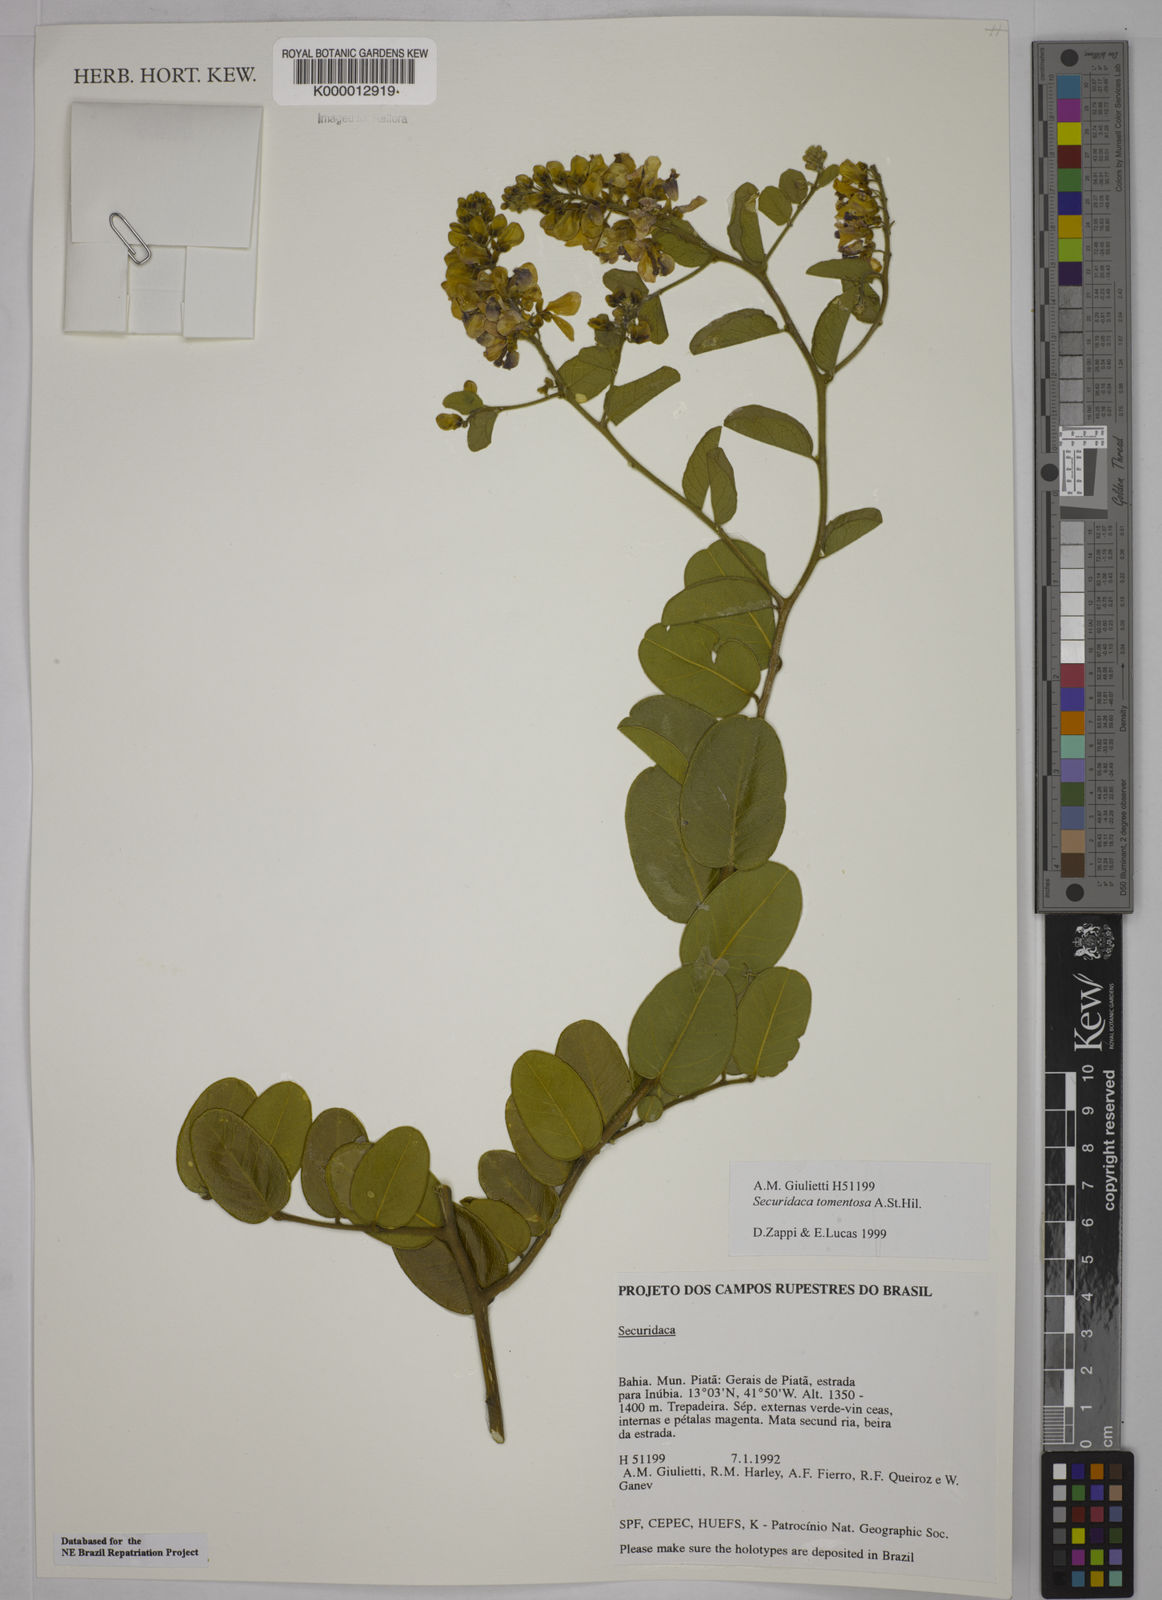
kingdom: Plantae
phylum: Tracheophyta
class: Magnoliopsida
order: Fabales
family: Polygalaceae
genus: Securidaca
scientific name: Securidaca tomentosa
